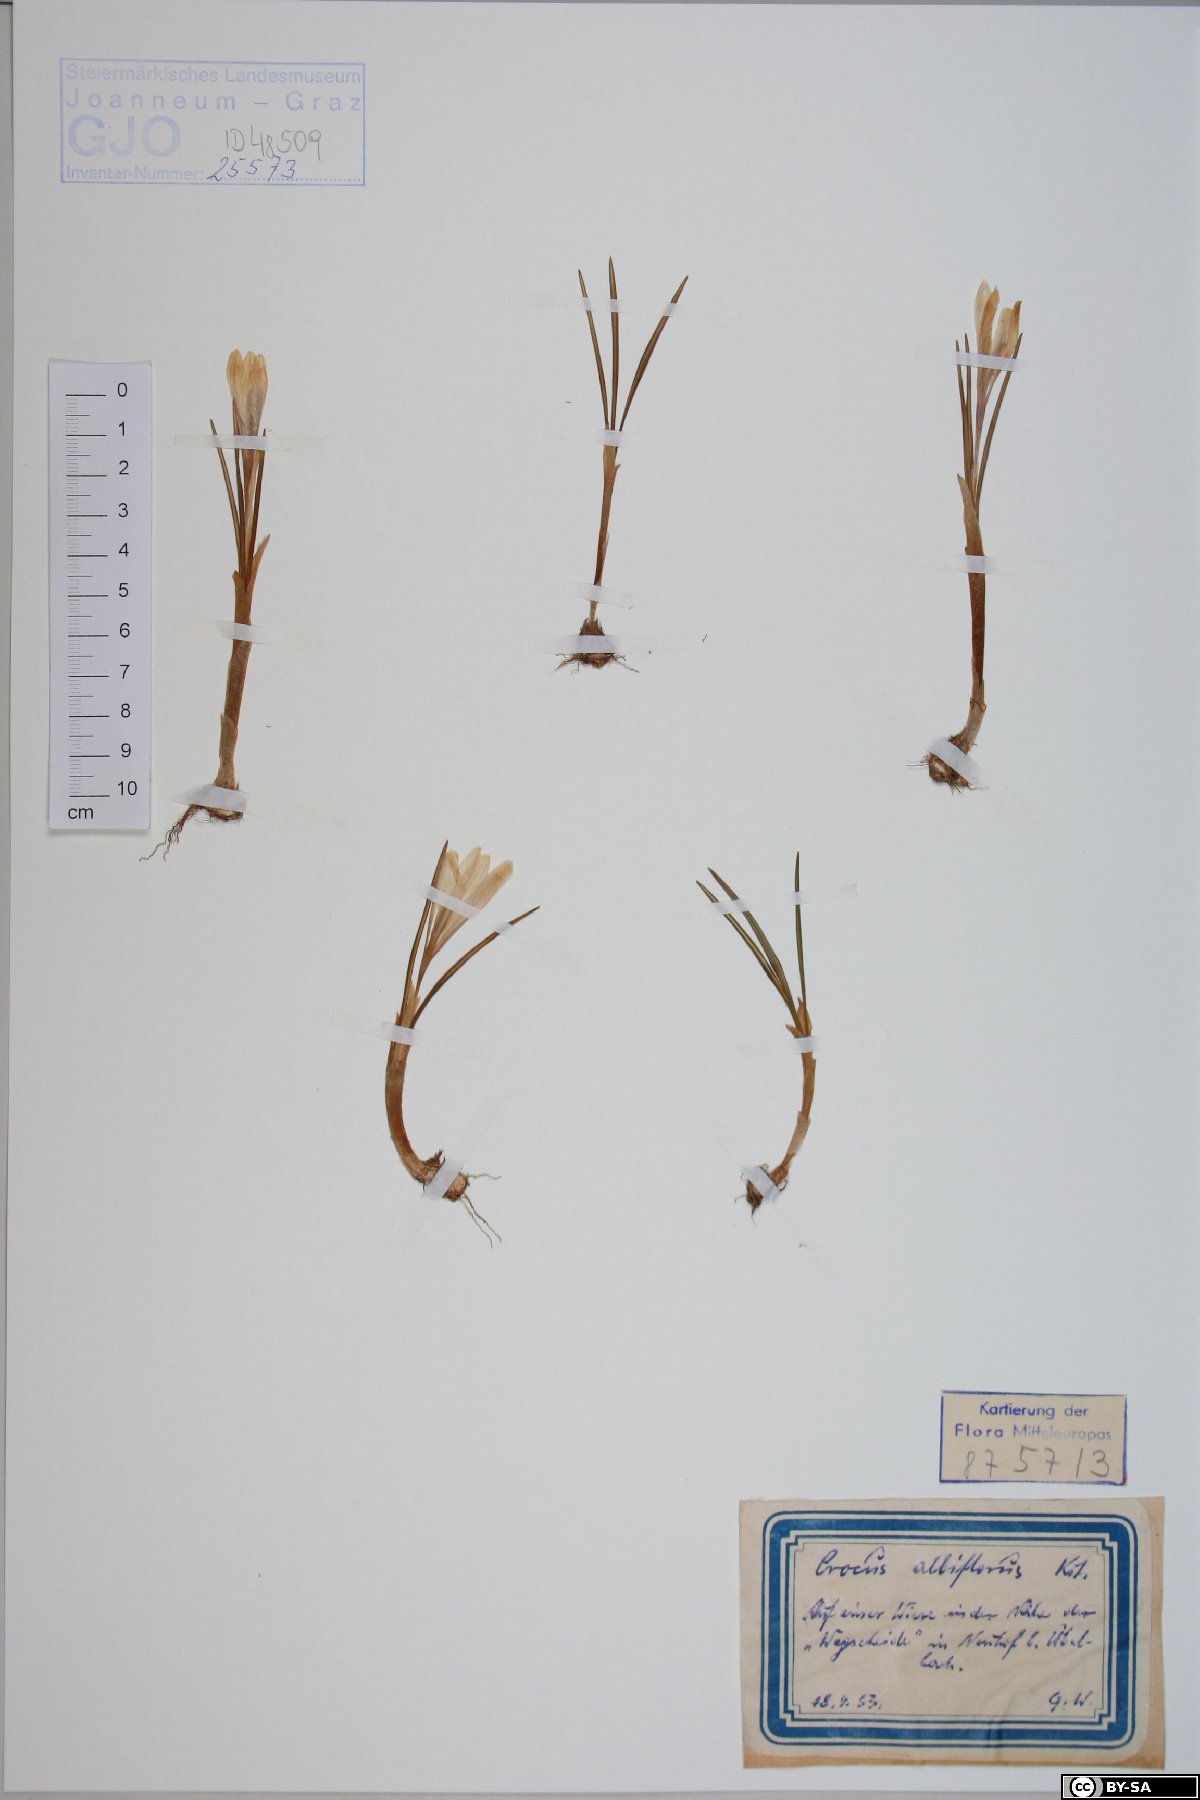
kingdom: Plantae
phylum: Tracheophyta
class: Liliopsida
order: Asparagales
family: Iridaceae
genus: Crocus
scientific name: Crocus vernus
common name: Spring crocus
